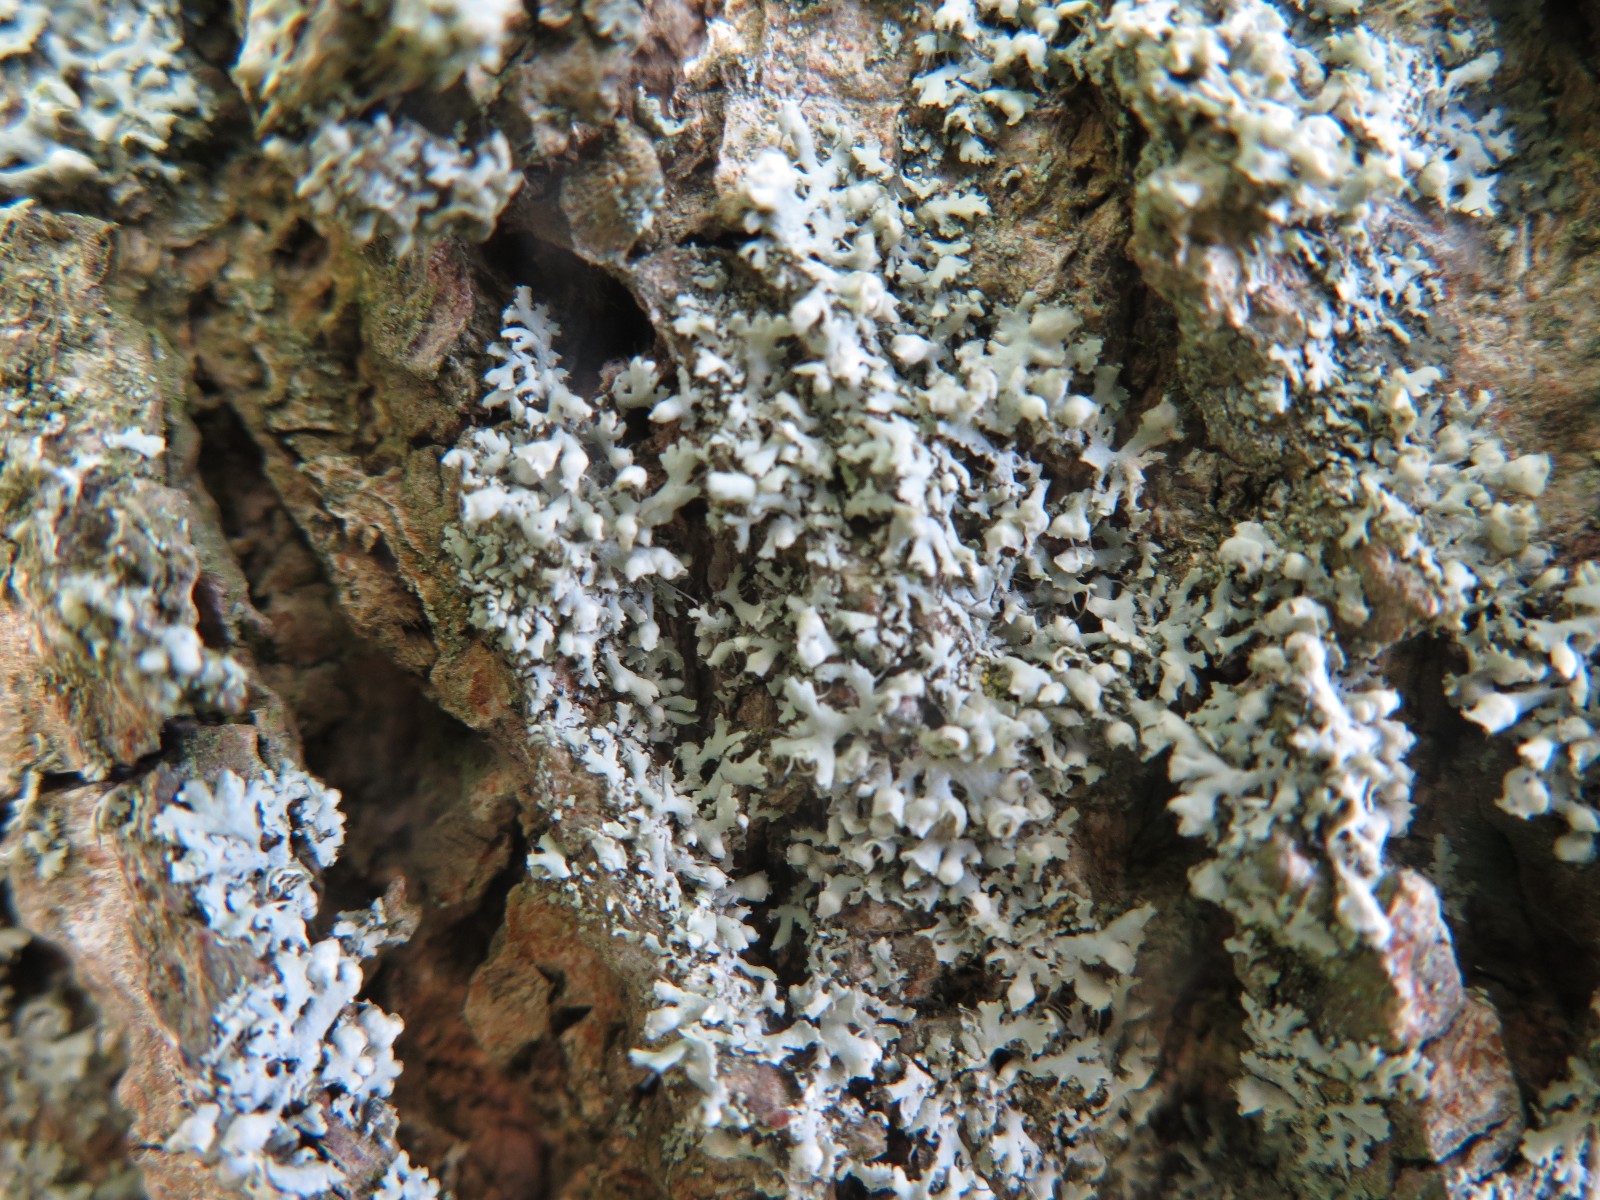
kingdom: Fungi
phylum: Ascomycota
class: Lecanoromycetes
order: Caliciales
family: Physciaceae
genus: Physcia
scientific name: Physcia tenella
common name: spæd rosetlav
